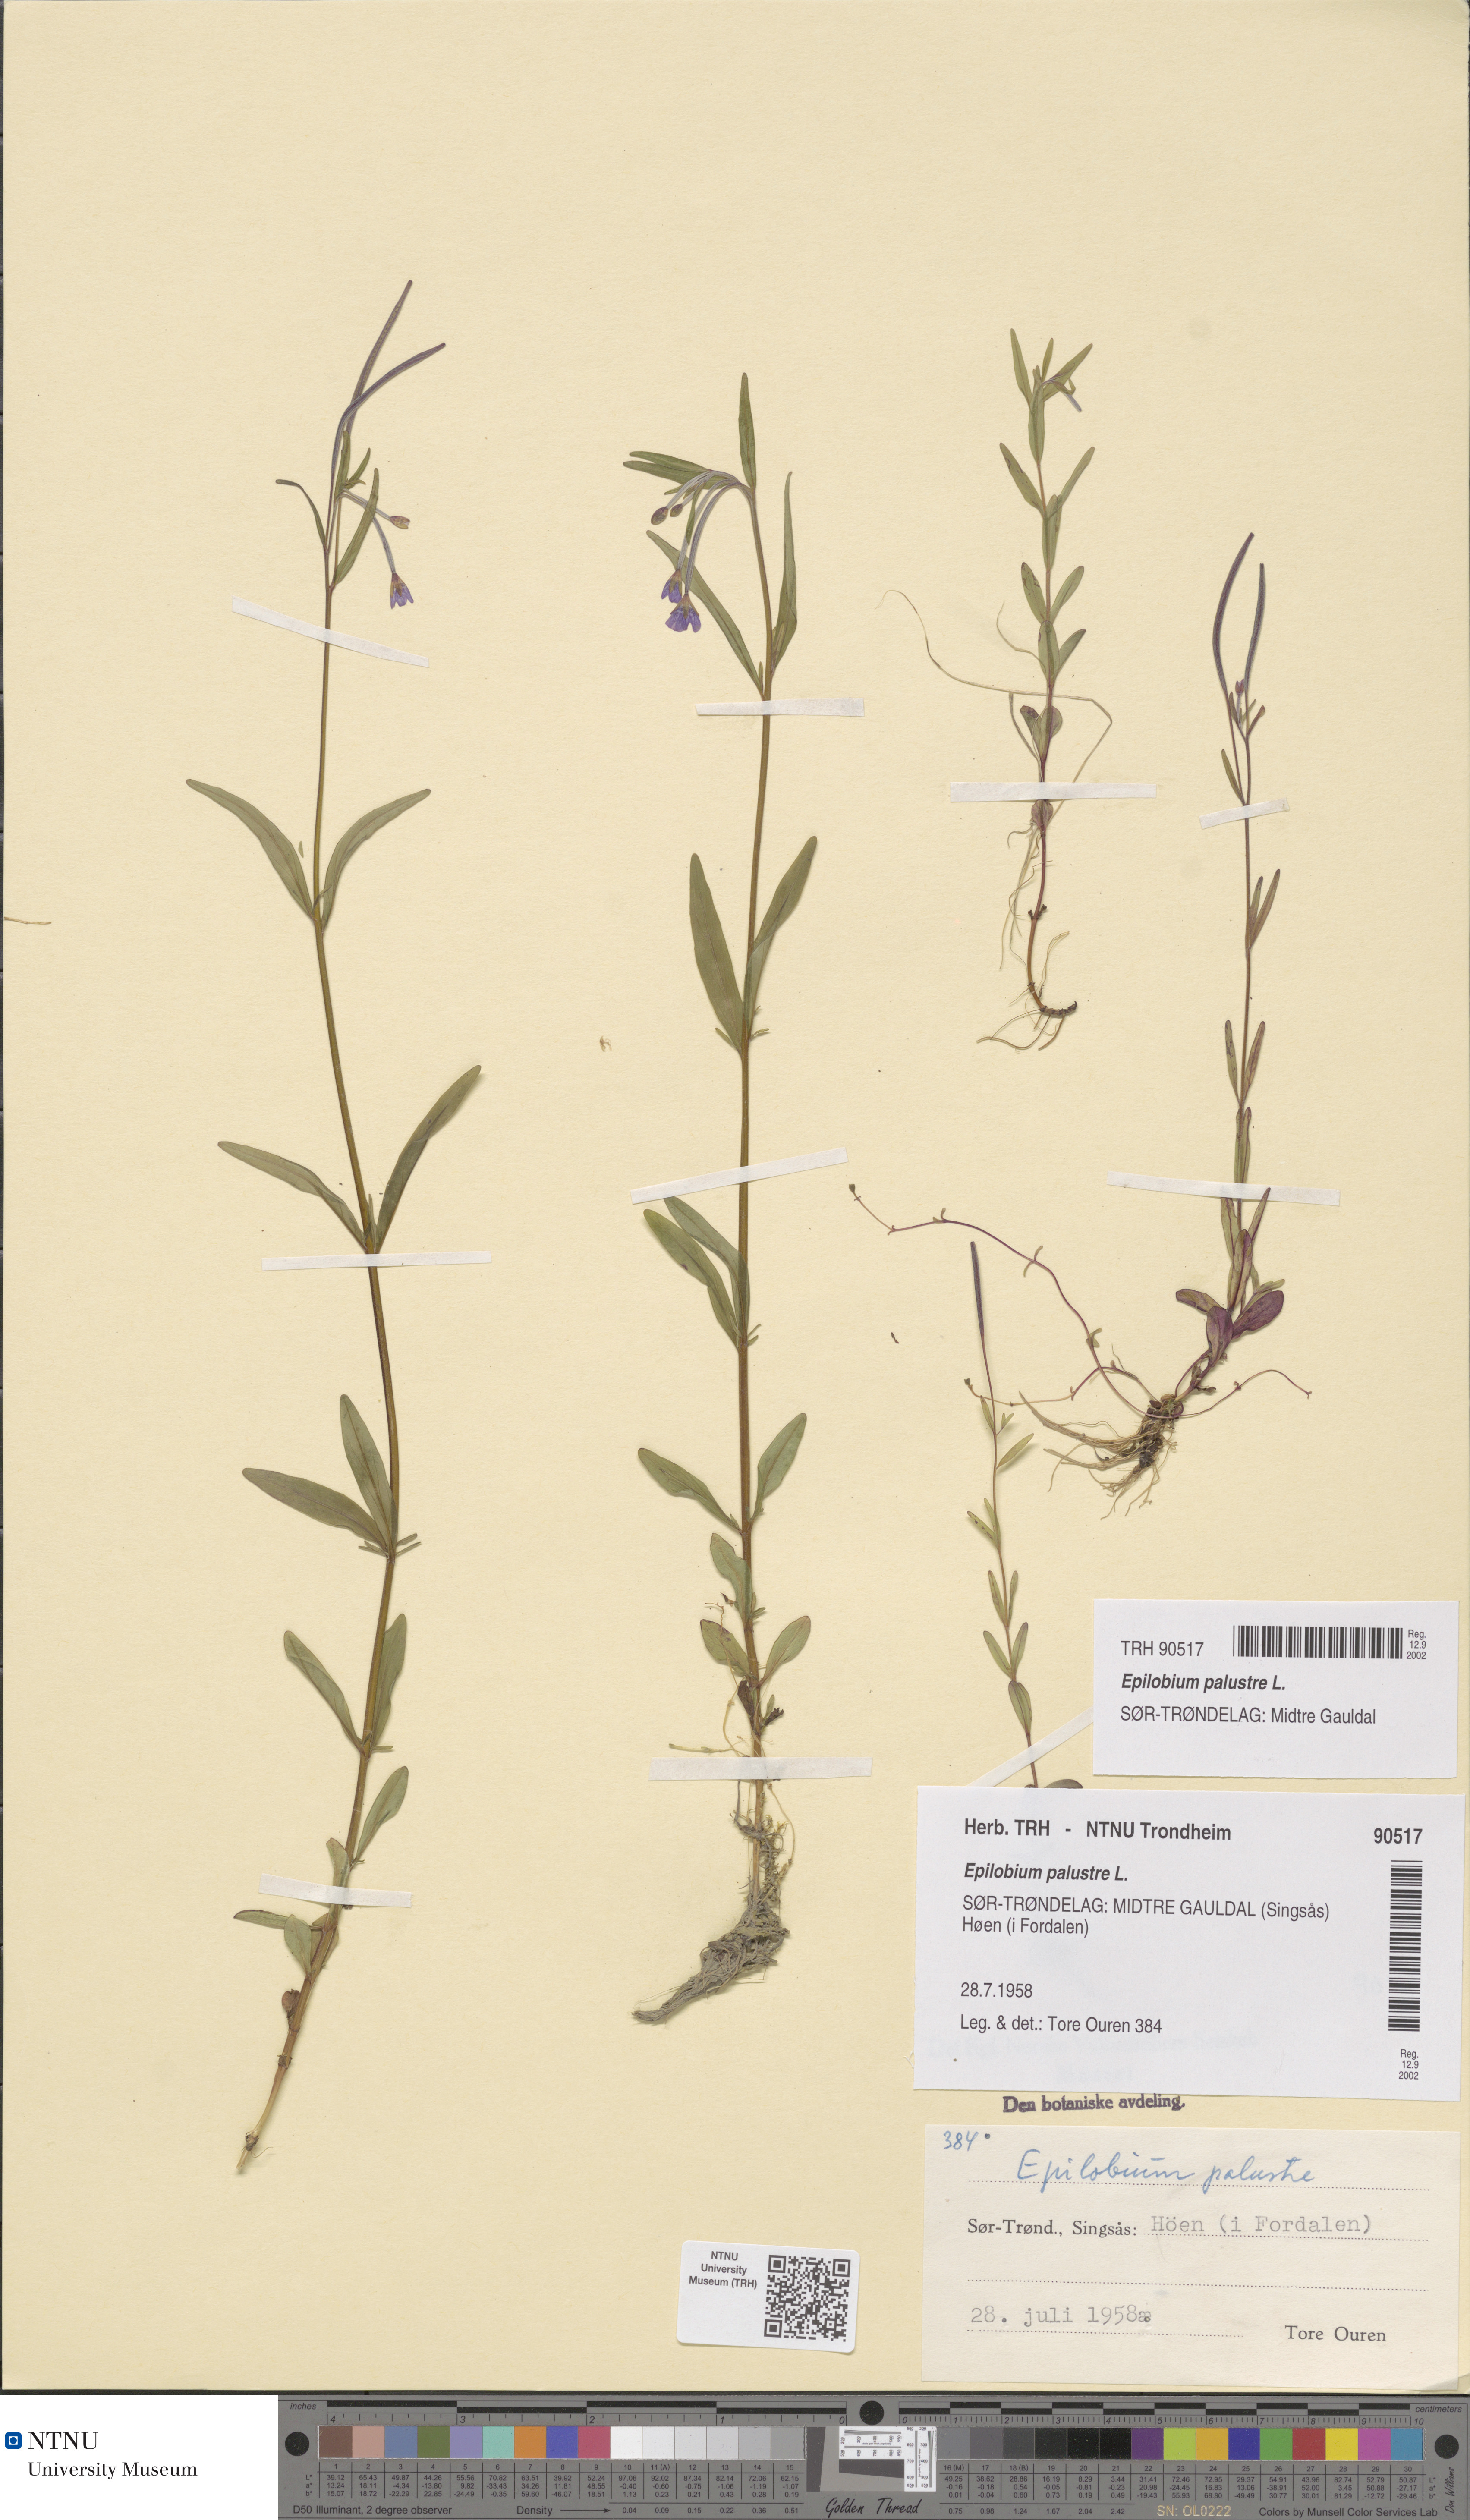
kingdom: Plantae
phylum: Tracheophyta
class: Magnoliopsida
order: Myrtales
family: Onagraceae
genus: Epilobium
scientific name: Epilobium palustre
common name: Marsh willowherb
